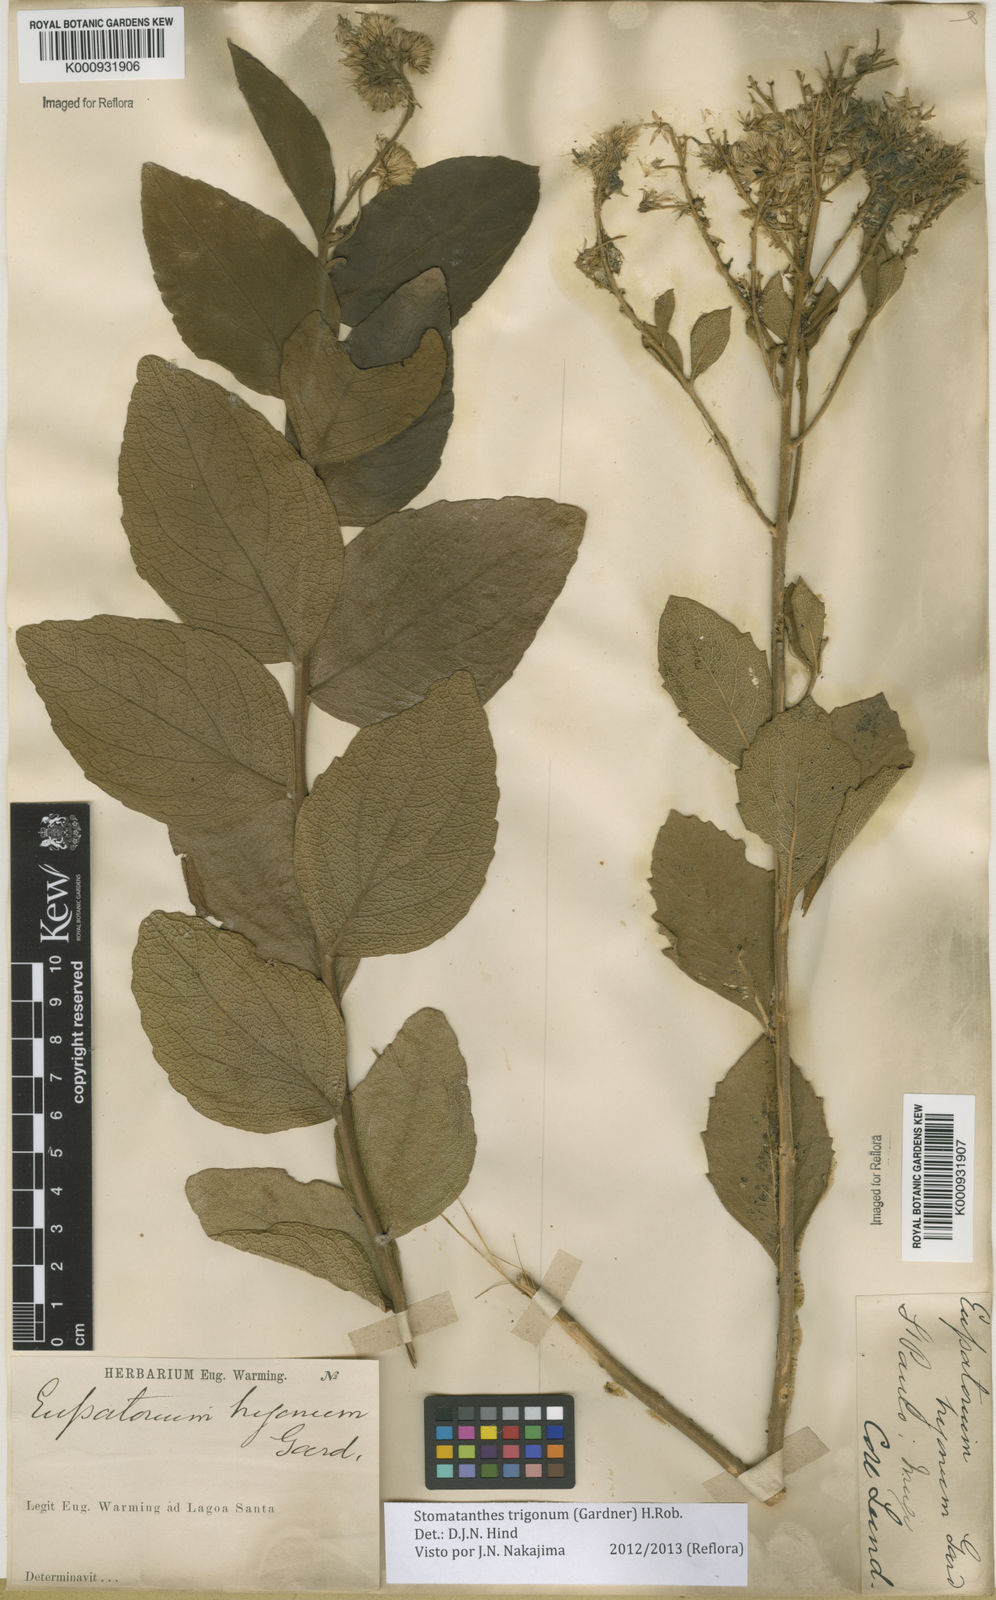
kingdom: Plantae
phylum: Tracheophyta
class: Magnoliopsida
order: Asterales
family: Asteraceae
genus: Stomatanthes
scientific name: Stomatanthes trigonus
